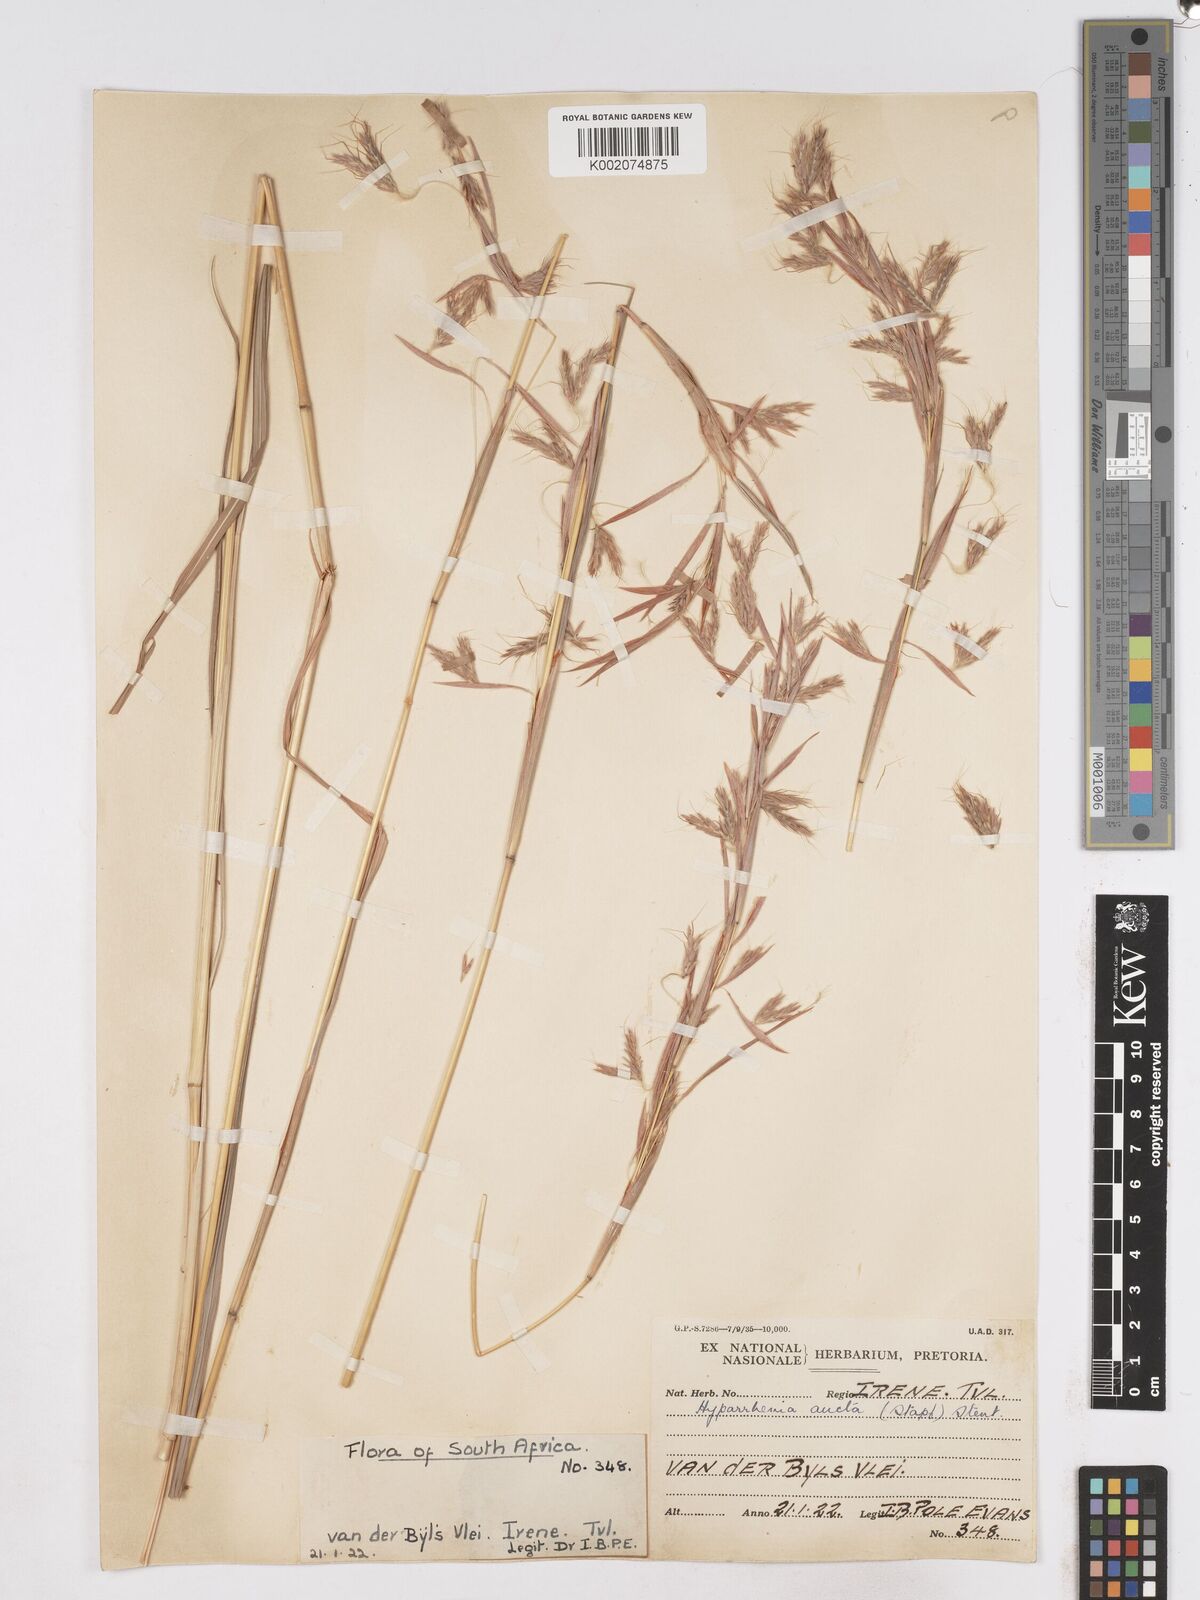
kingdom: Plantae
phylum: Tracheophyta
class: Liliopsida
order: Poales
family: Poaceae
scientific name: Poaceae
